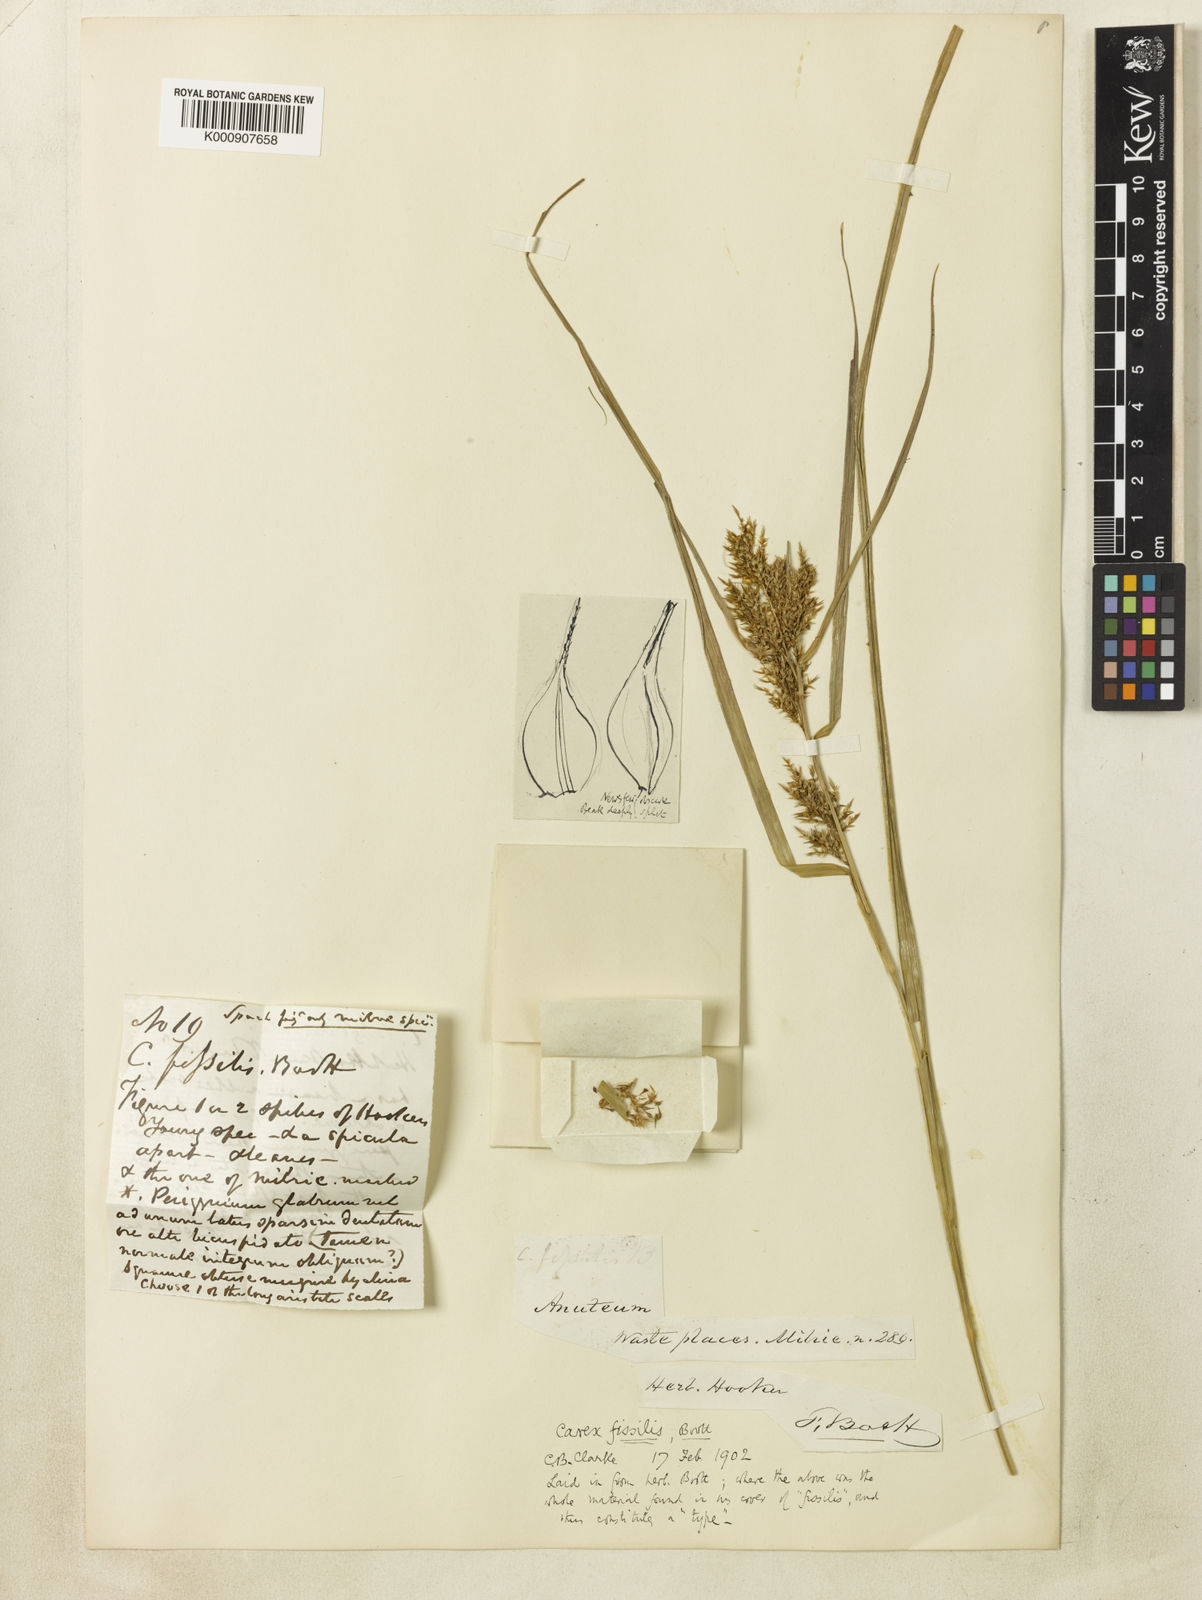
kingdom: Plantae
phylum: Tracheophyta
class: Liliopsida
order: Poales
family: Cyperaceae
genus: Carex
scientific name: Carex
